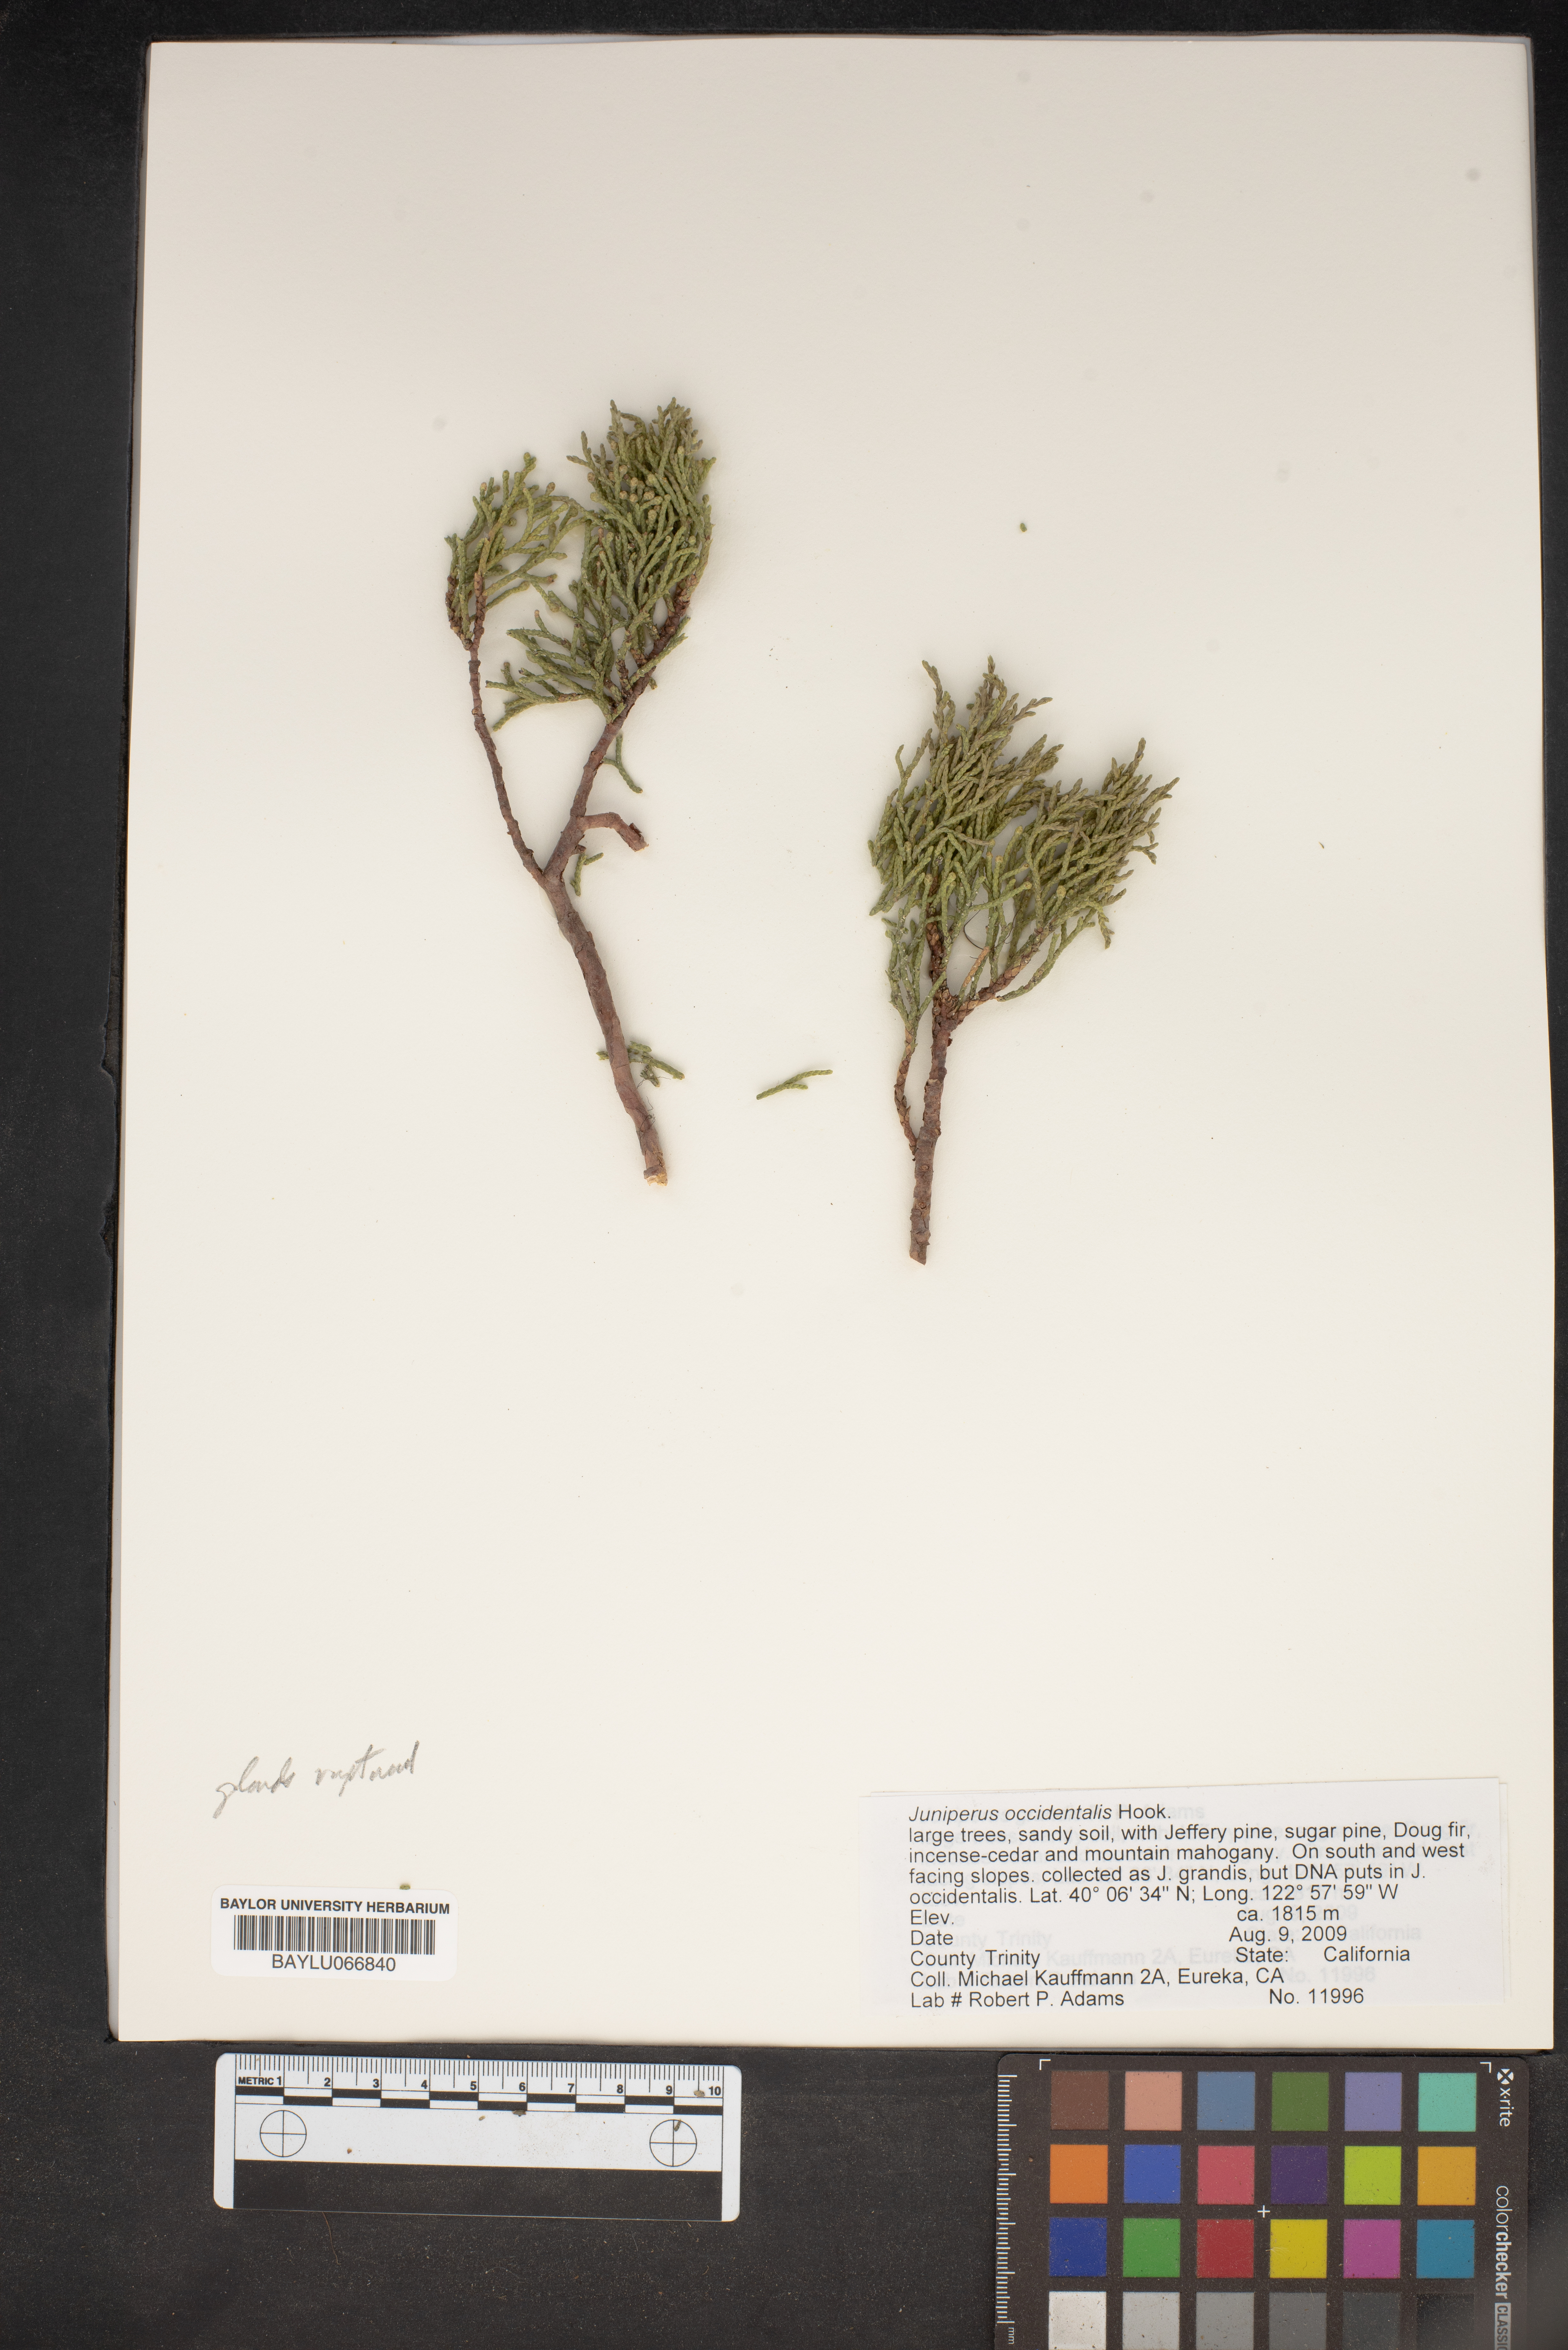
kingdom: Plantae
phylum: Tracheophyta
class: Pinopsida
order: Pinales
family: Cupressaceae
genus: Juniperus
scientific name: Juniperus occidentalis
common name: Western juniper
